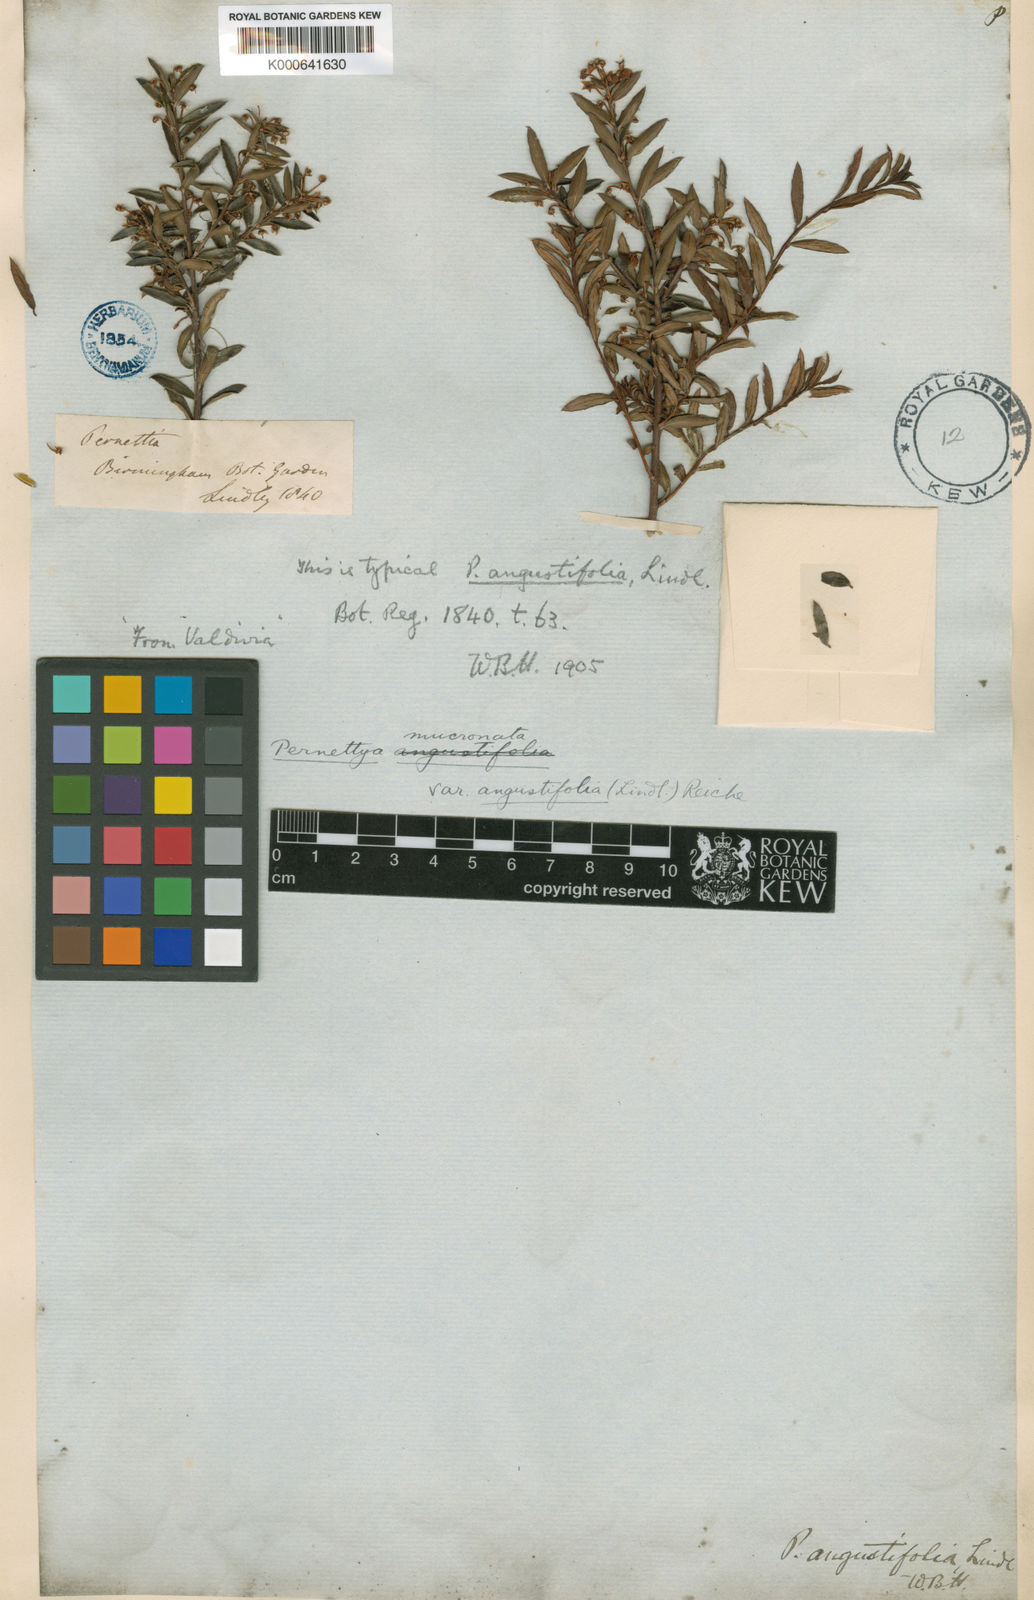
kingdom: Plantae
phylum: Tracheophyta
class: Magnoliopsida
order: Ericales
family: Ericaceae
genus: Gaultheria
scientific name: Gaultheria marticorenae
